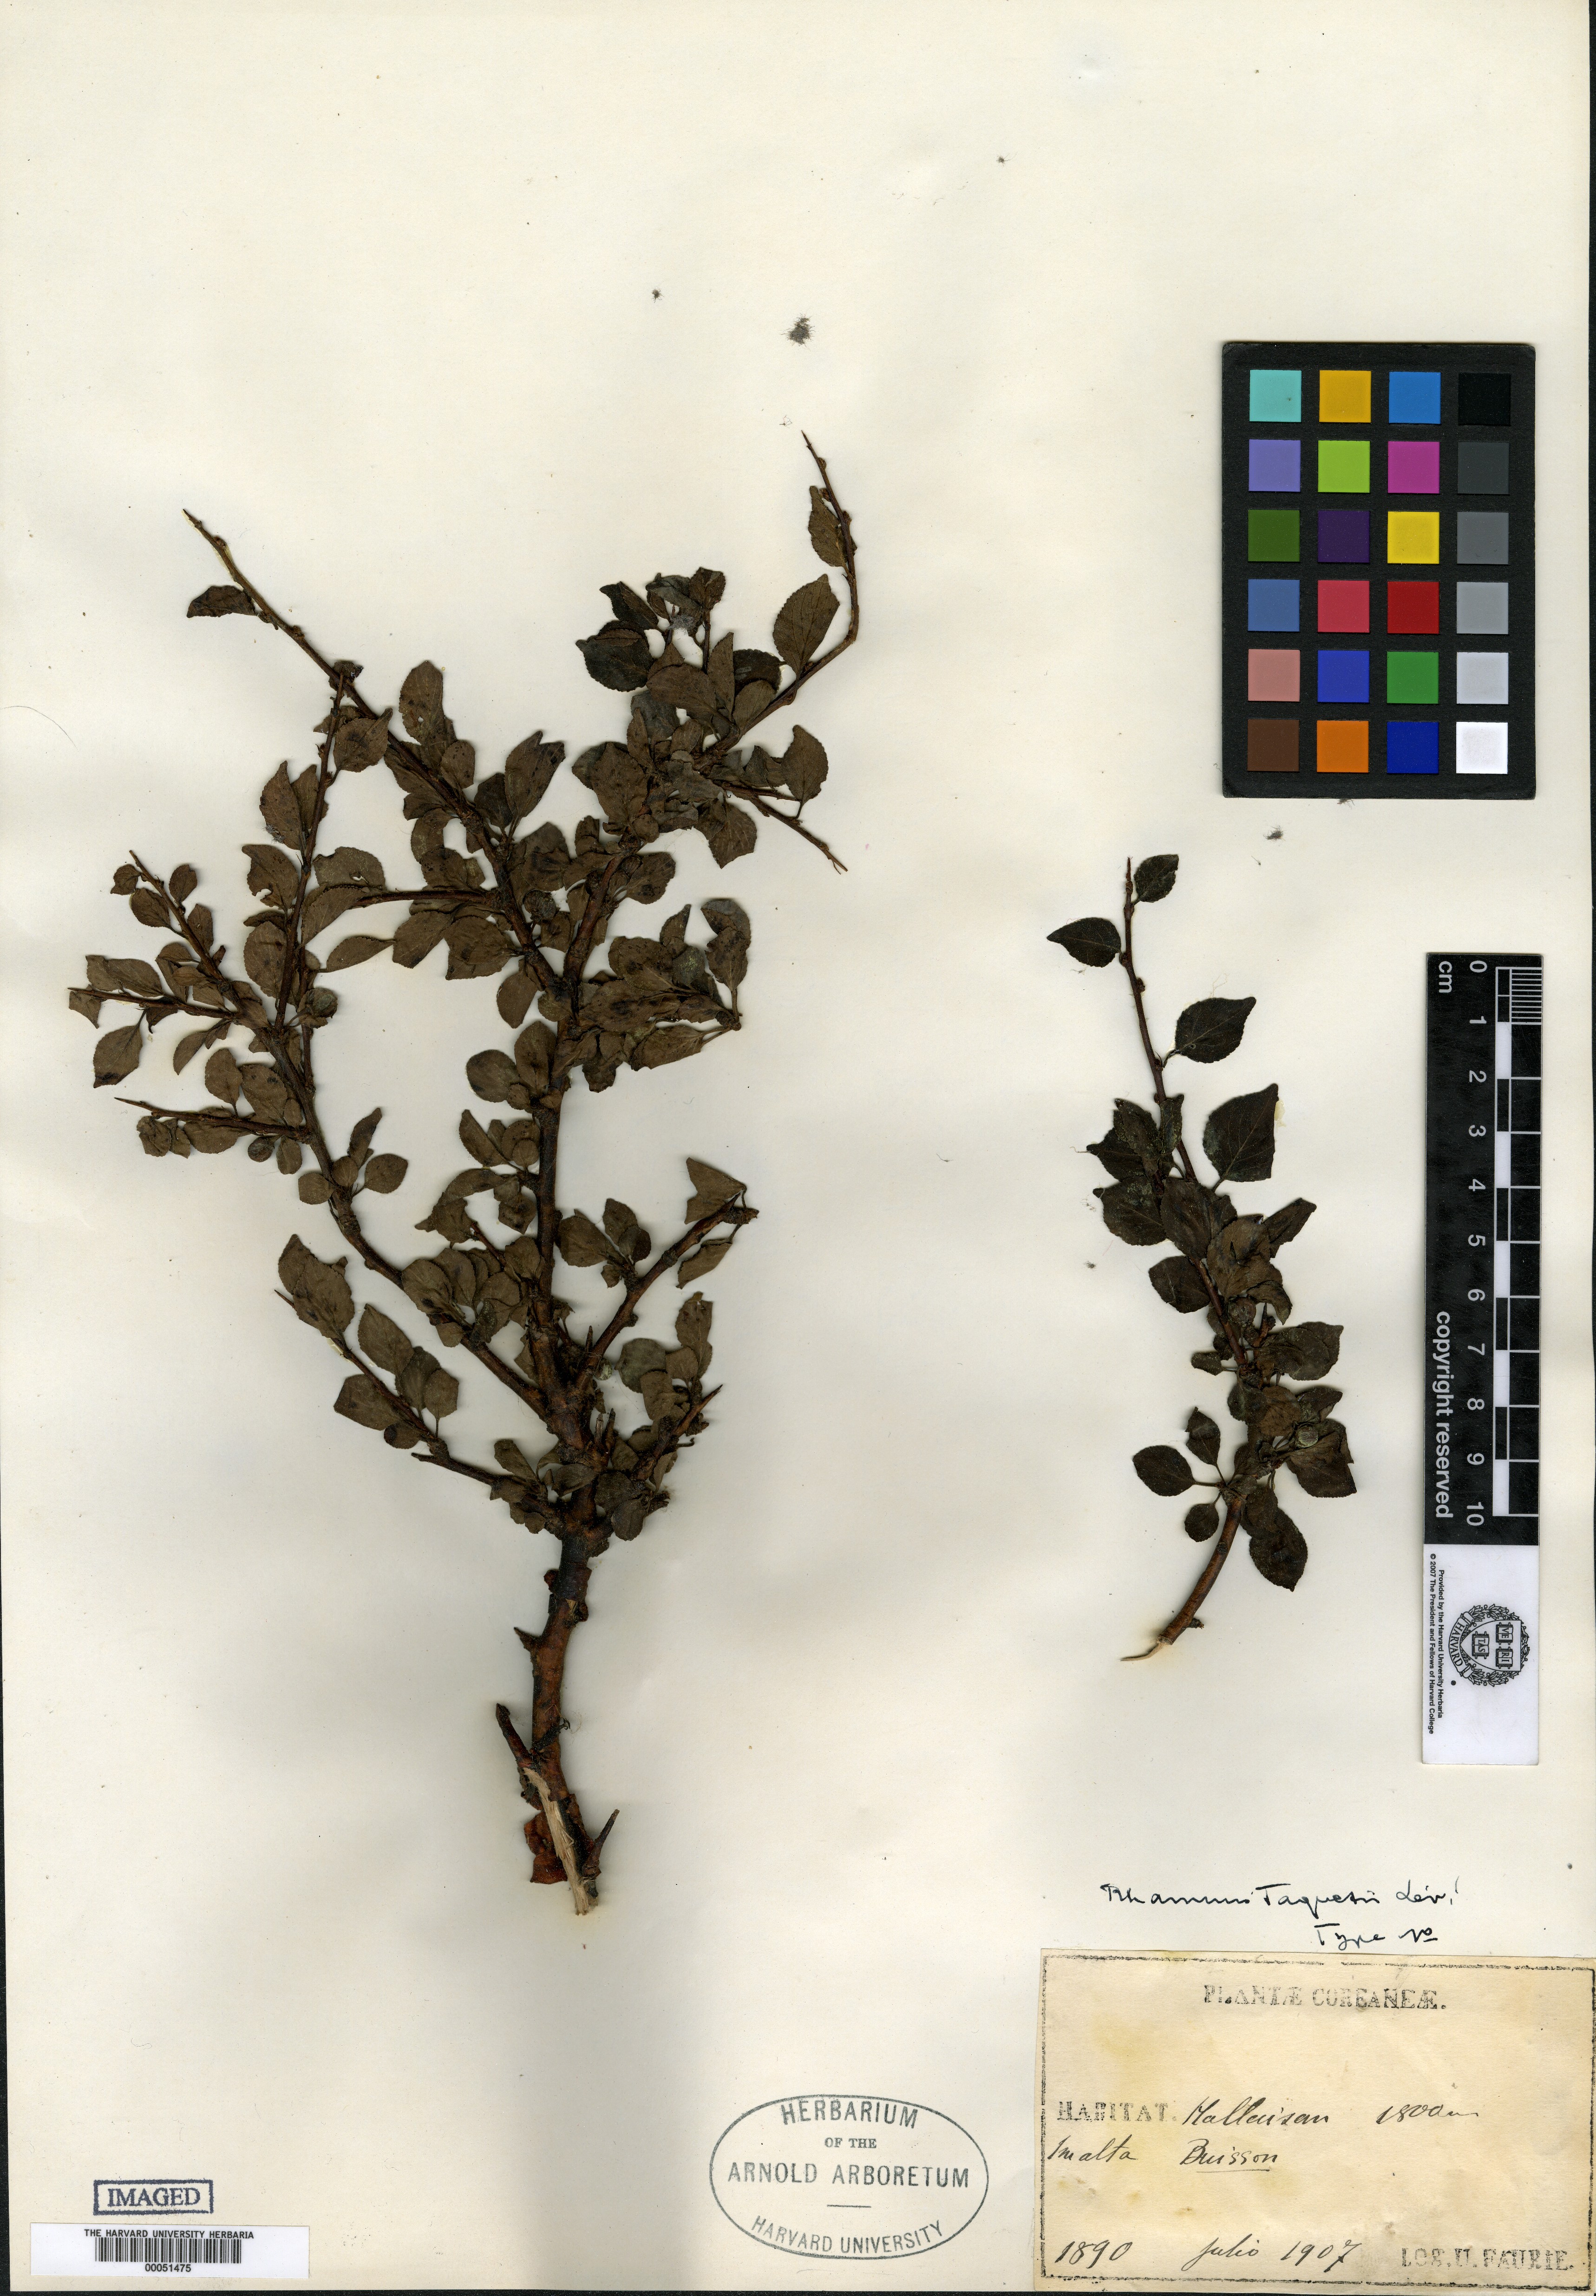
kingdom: Plantae
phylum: Tracheophyta
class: Magnoliopsida
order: Rosales
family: Rhamnaceae
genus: Rhamnus
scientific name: Rhamnus taquetii
